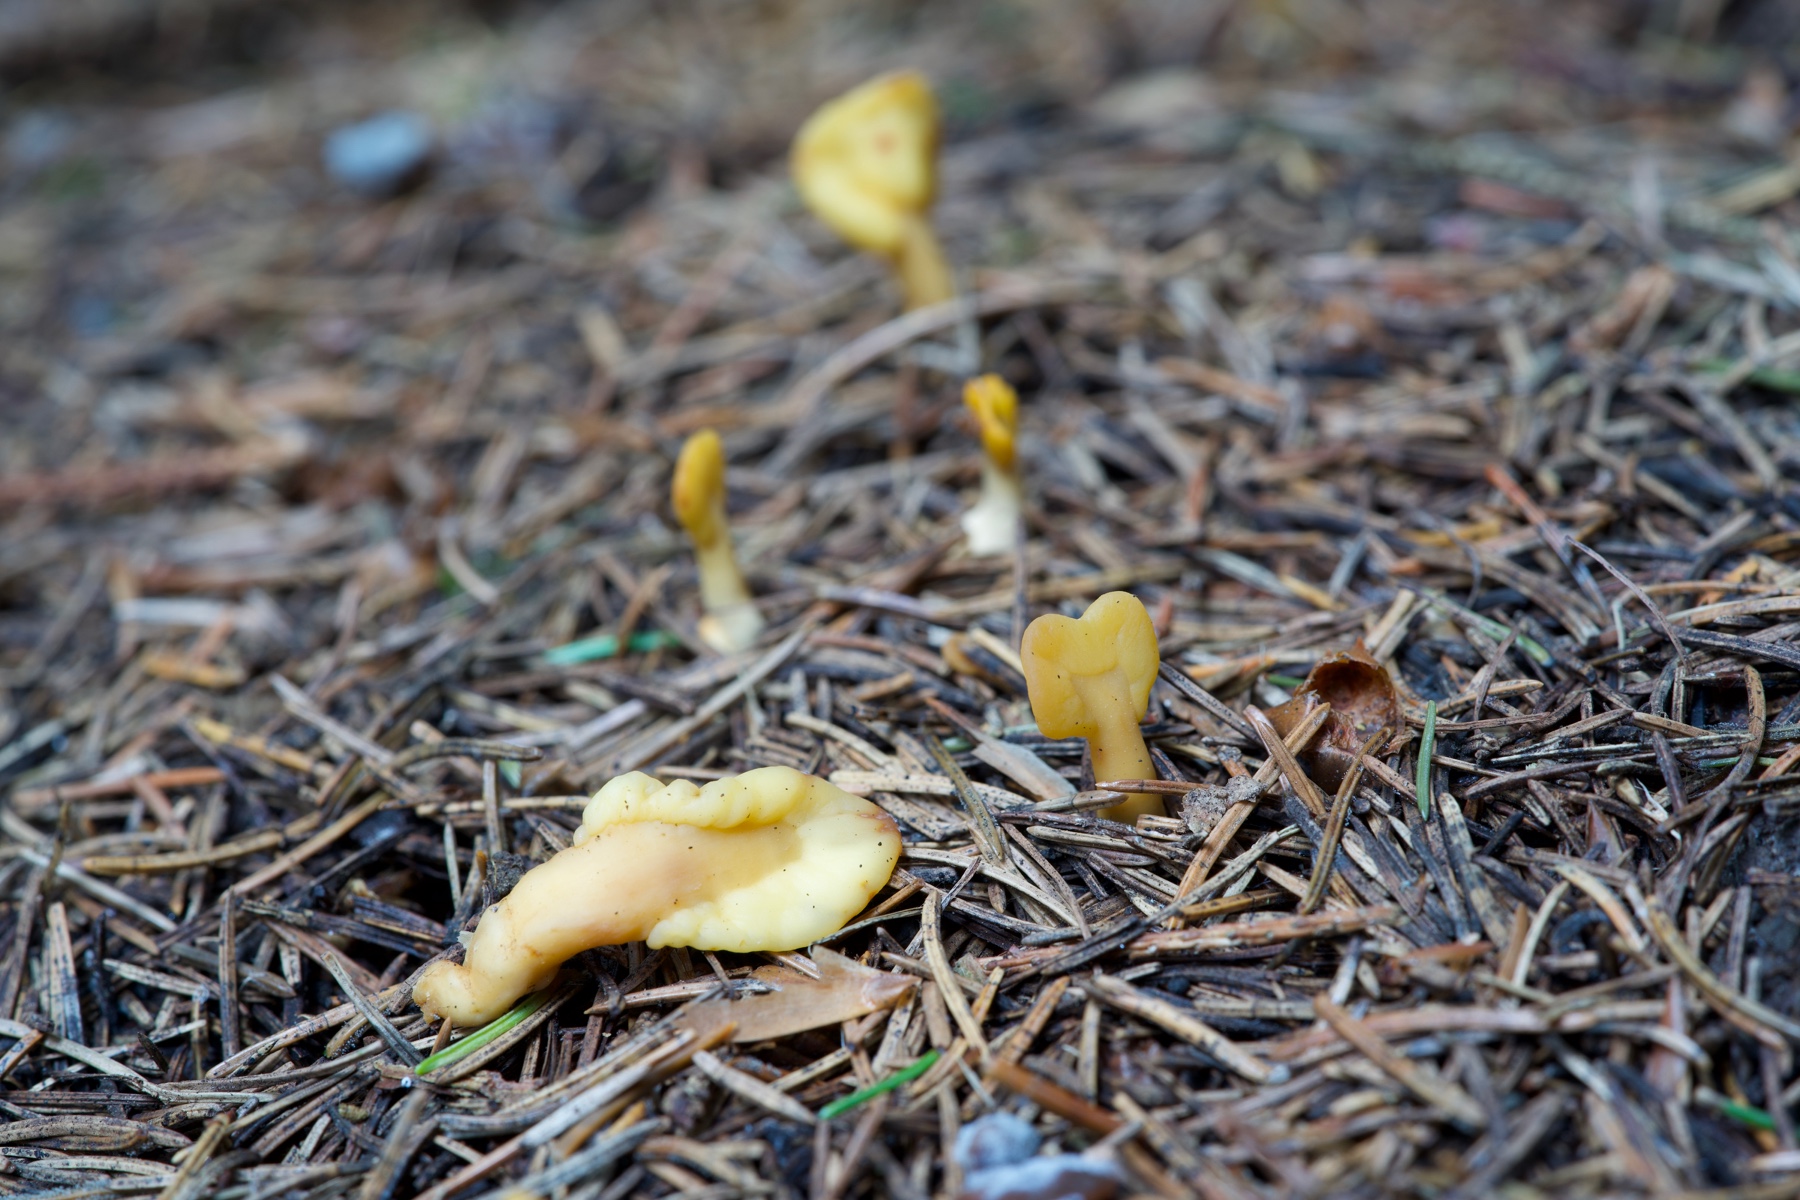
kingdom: Fungi
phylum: Ascomycota
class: Leotiomycetes
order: Rhytismatales
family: Cudoniaceae
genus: Spathularia
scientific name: Spathularia flavida
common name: gul spatelsvamp
